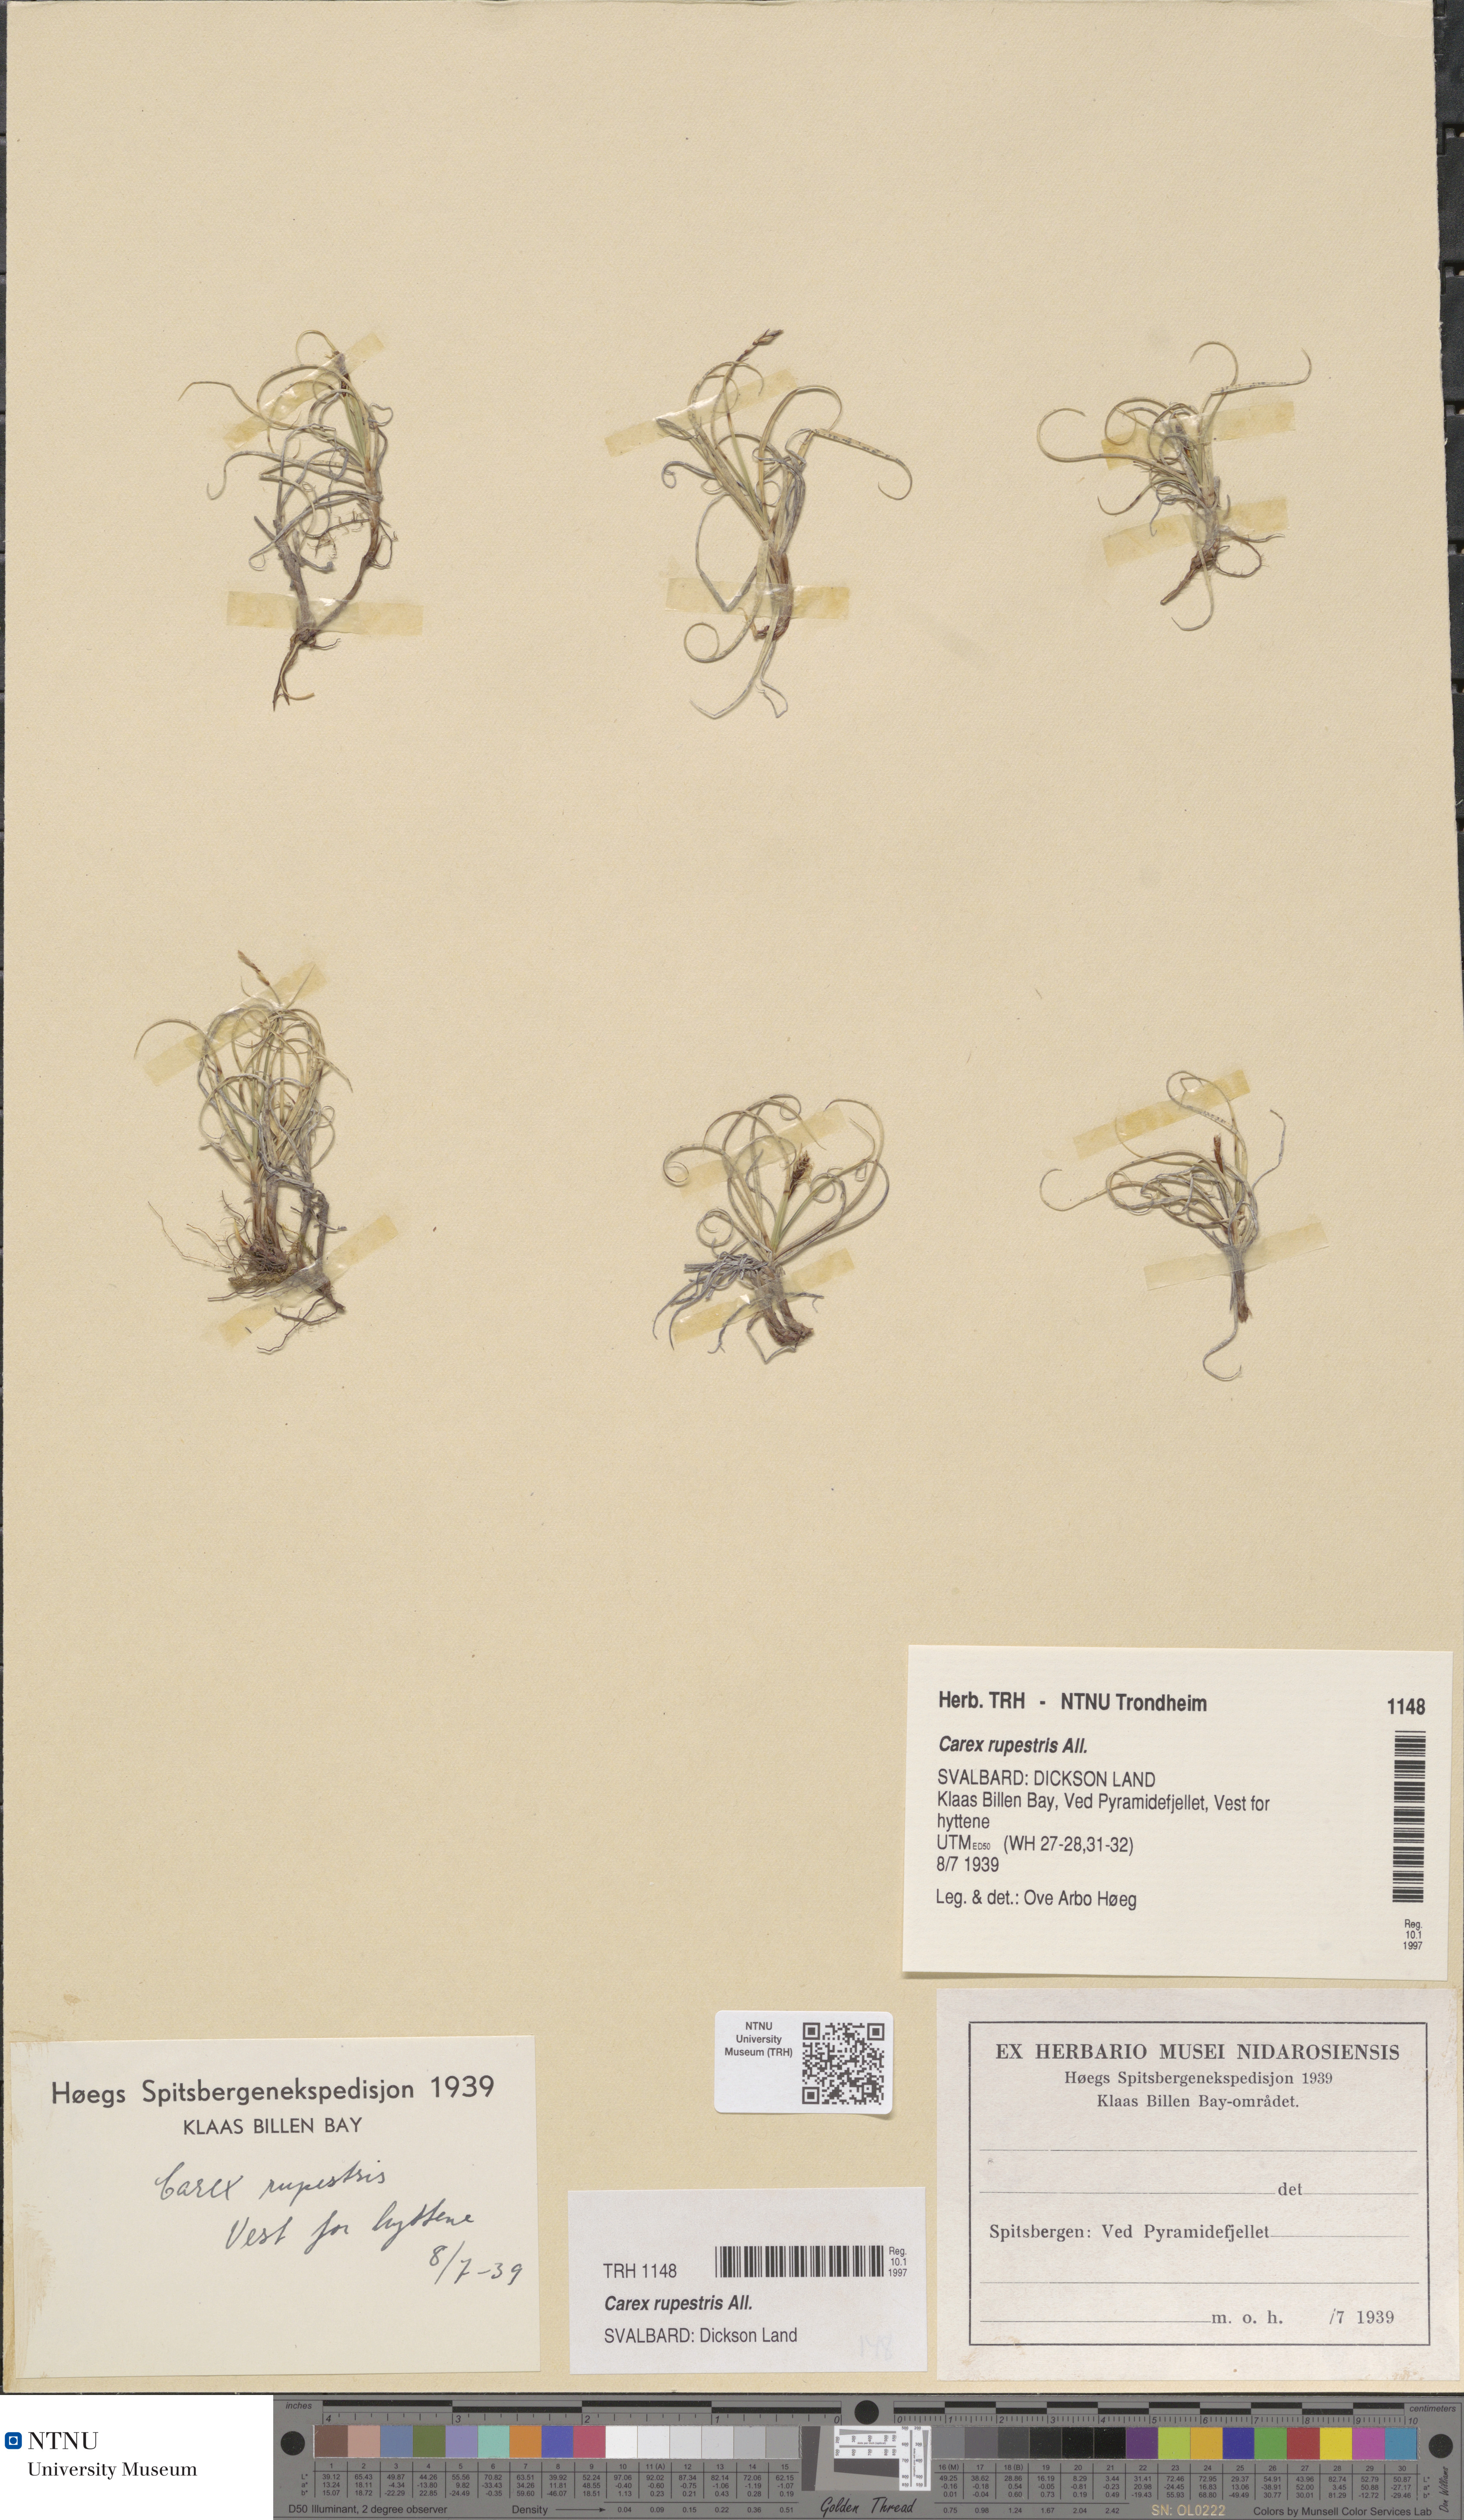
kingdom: Plantae
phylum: Tracheophyta
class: Liliopsida
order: Poales
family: Cyperaceae
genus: Carex
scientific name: Carex rupestris
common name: Rock sedge
